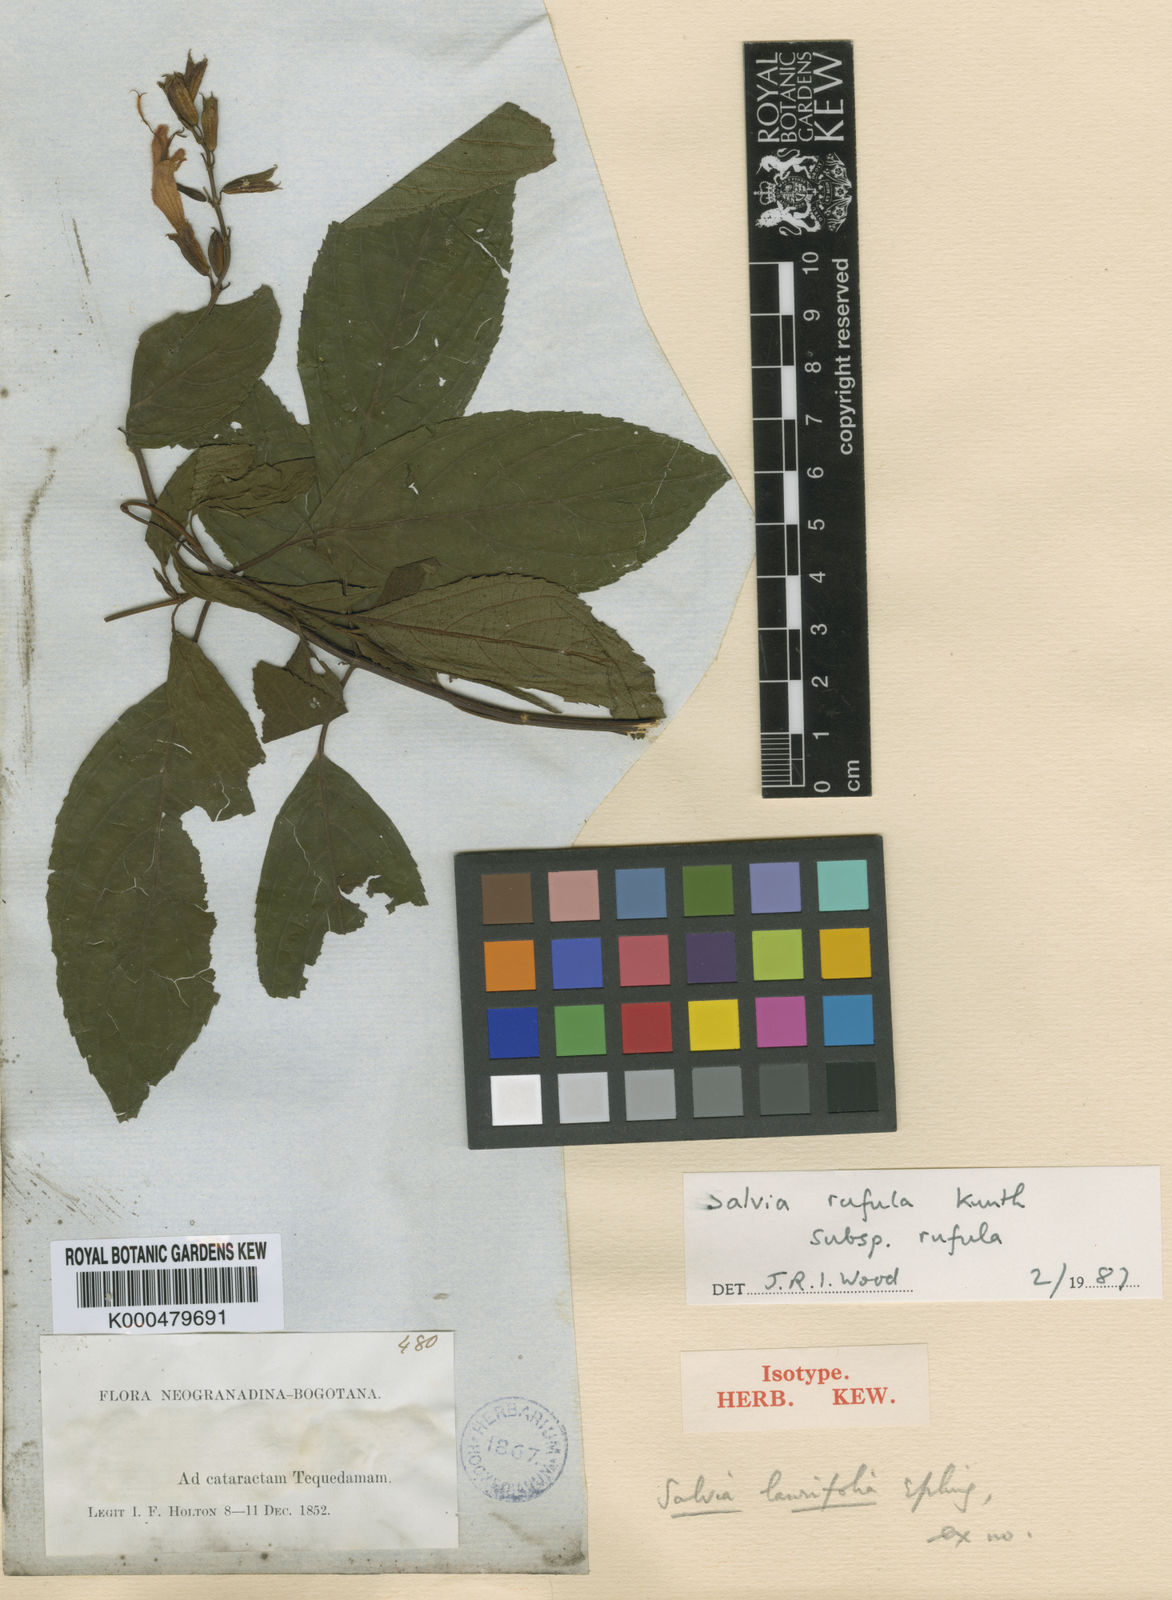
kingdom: Plantae
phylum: Tracheophyta
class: Magnoliopsida
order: Lamiales
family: Lamiaceae
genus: Salvia
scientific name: Salvia rufula
